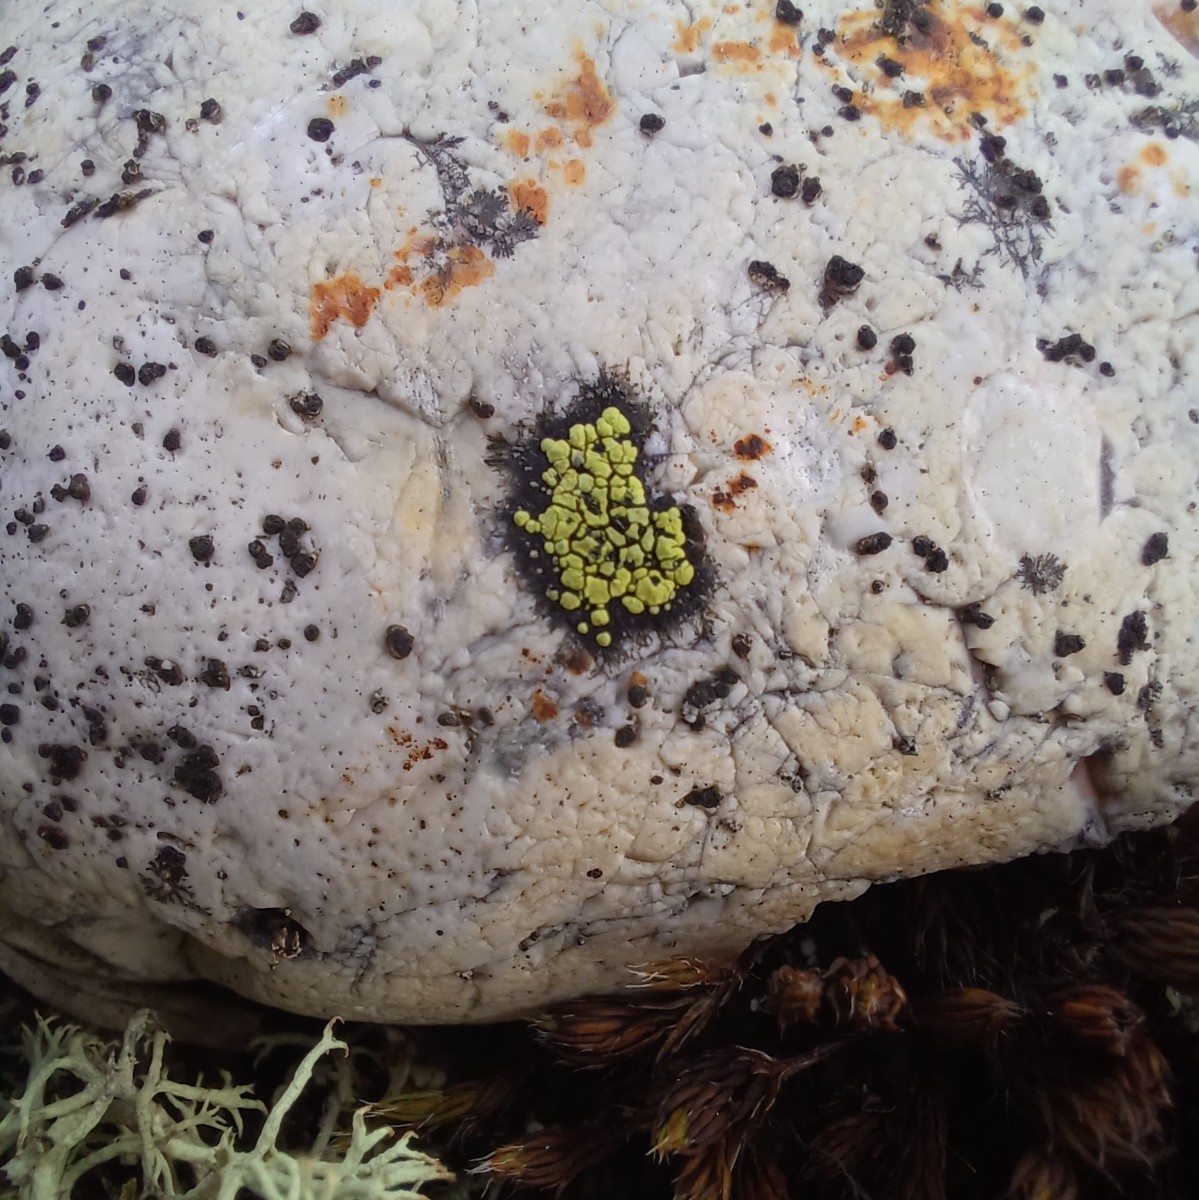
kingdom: Fungi
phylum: Ascomycota
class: Lecanoromycetes
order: Rhizocarpales
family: Rhizocarpaceae
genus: Rhizocarpon
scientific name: Rhizocarpon lecanorinum
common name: krave-landkortlav
